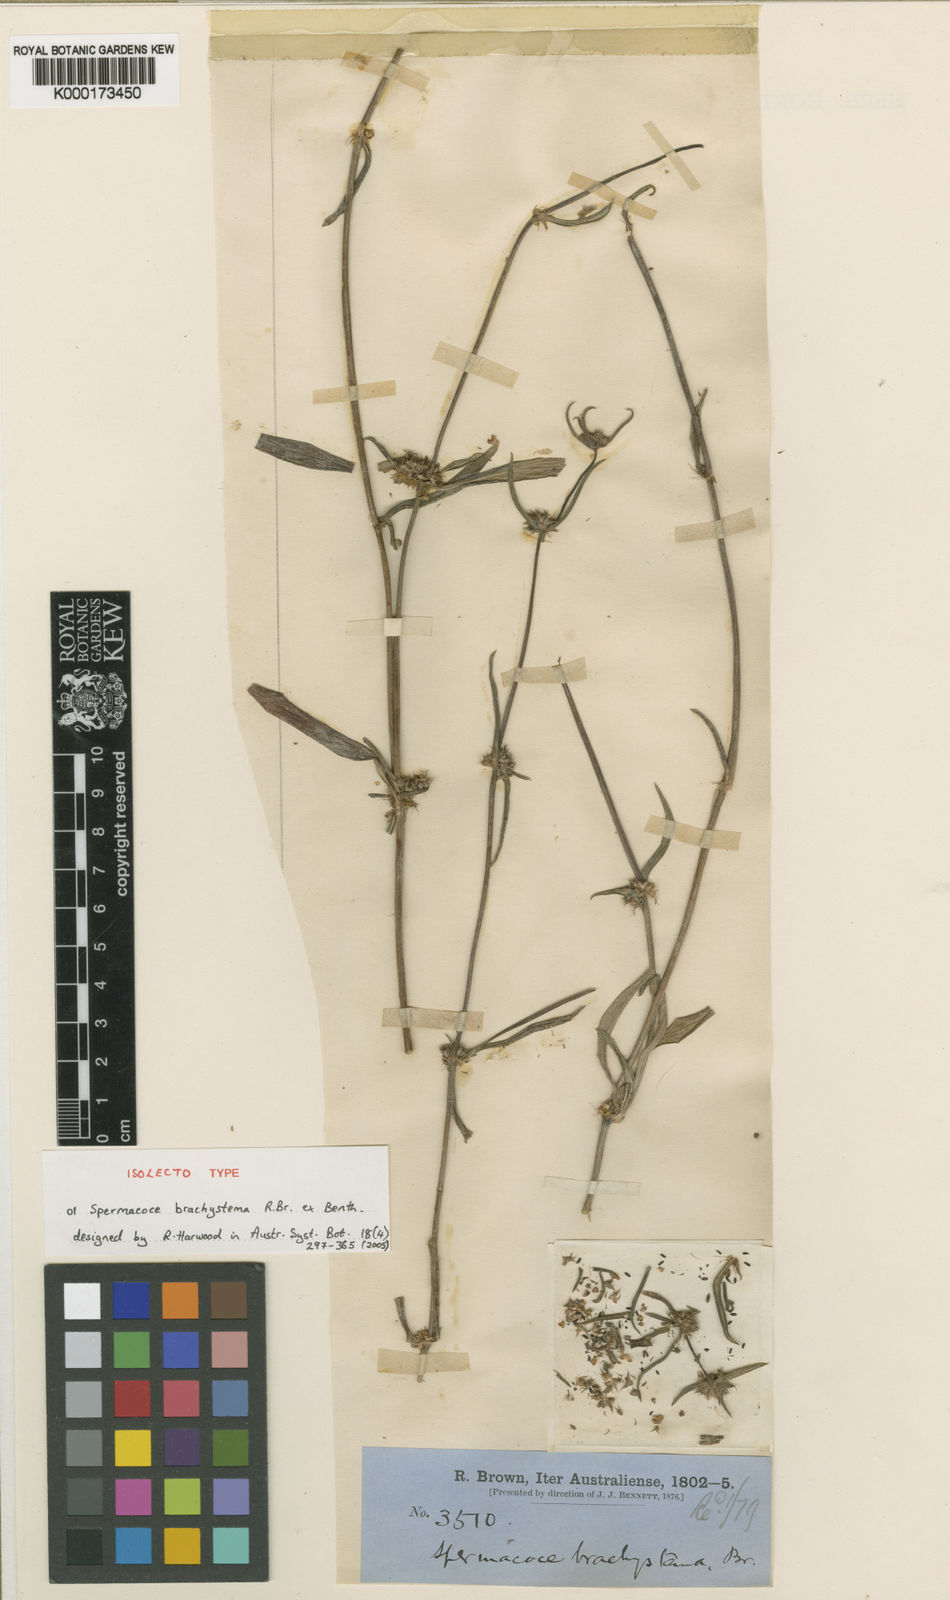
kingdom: Plantae
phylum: Tracheophyta
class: Magnoliopsida
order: Gentianales
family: Rubiaceae
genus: Spermacoce
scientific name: Spermacoce brachystema
